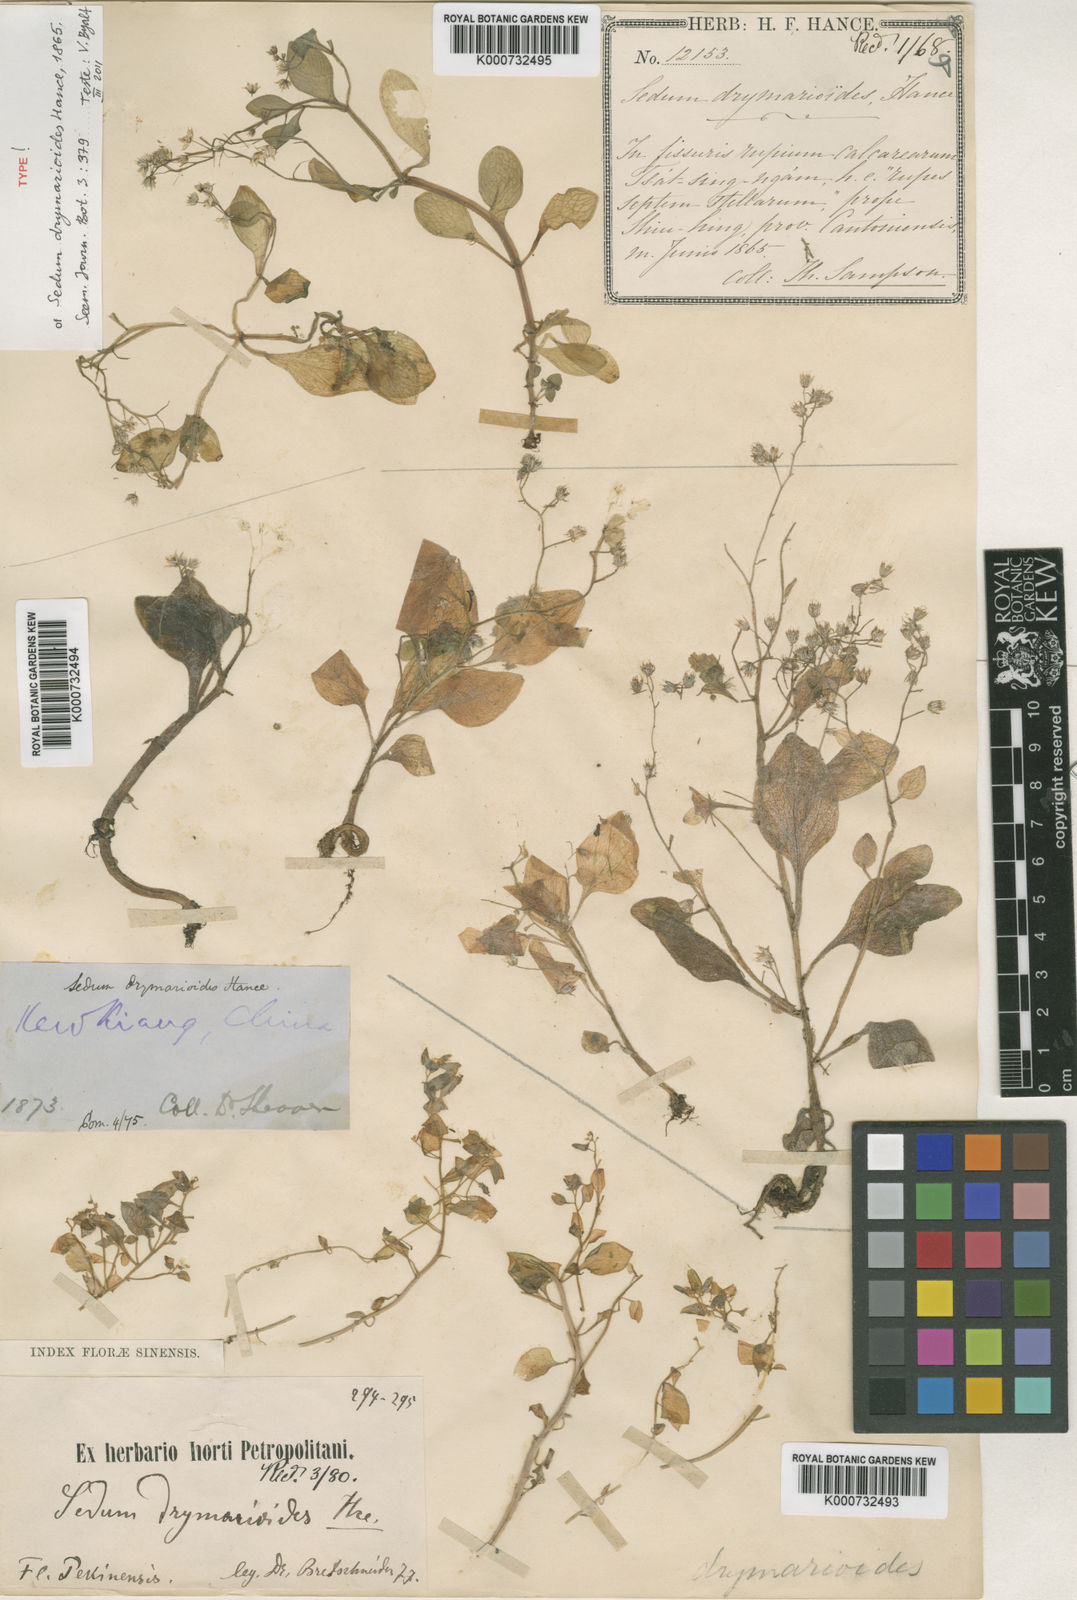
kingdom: Plantae
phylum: Tracheophyta
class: Magnoliopsida
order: Saxifragales
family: Crassulaceae
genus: Sedum
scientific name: Sedum drymarioides
